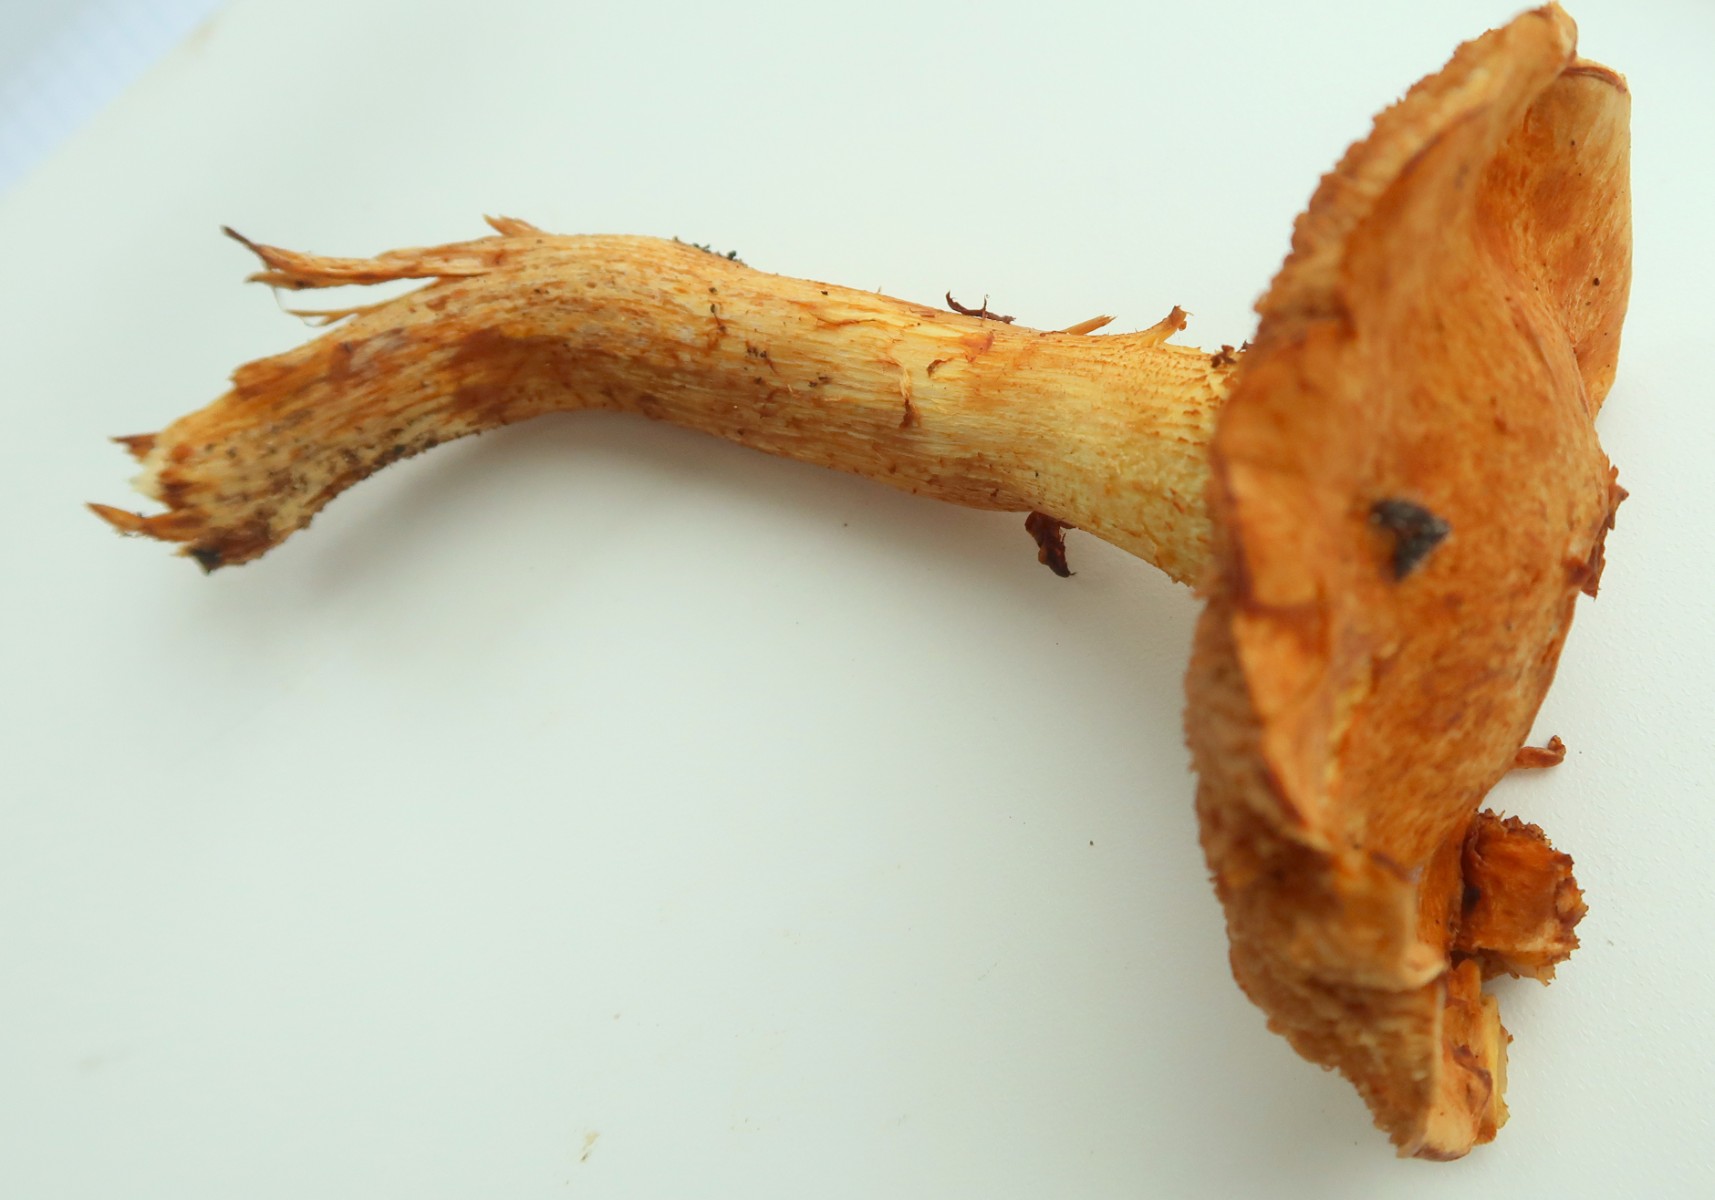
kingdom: Fungi
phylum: Basidiomycota
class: Agaricomycetes
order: Agaricales
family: Hymenogastraceae
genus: Gymnopilus
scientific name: Gymnopilus spectabilis
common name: fibret flammehat
